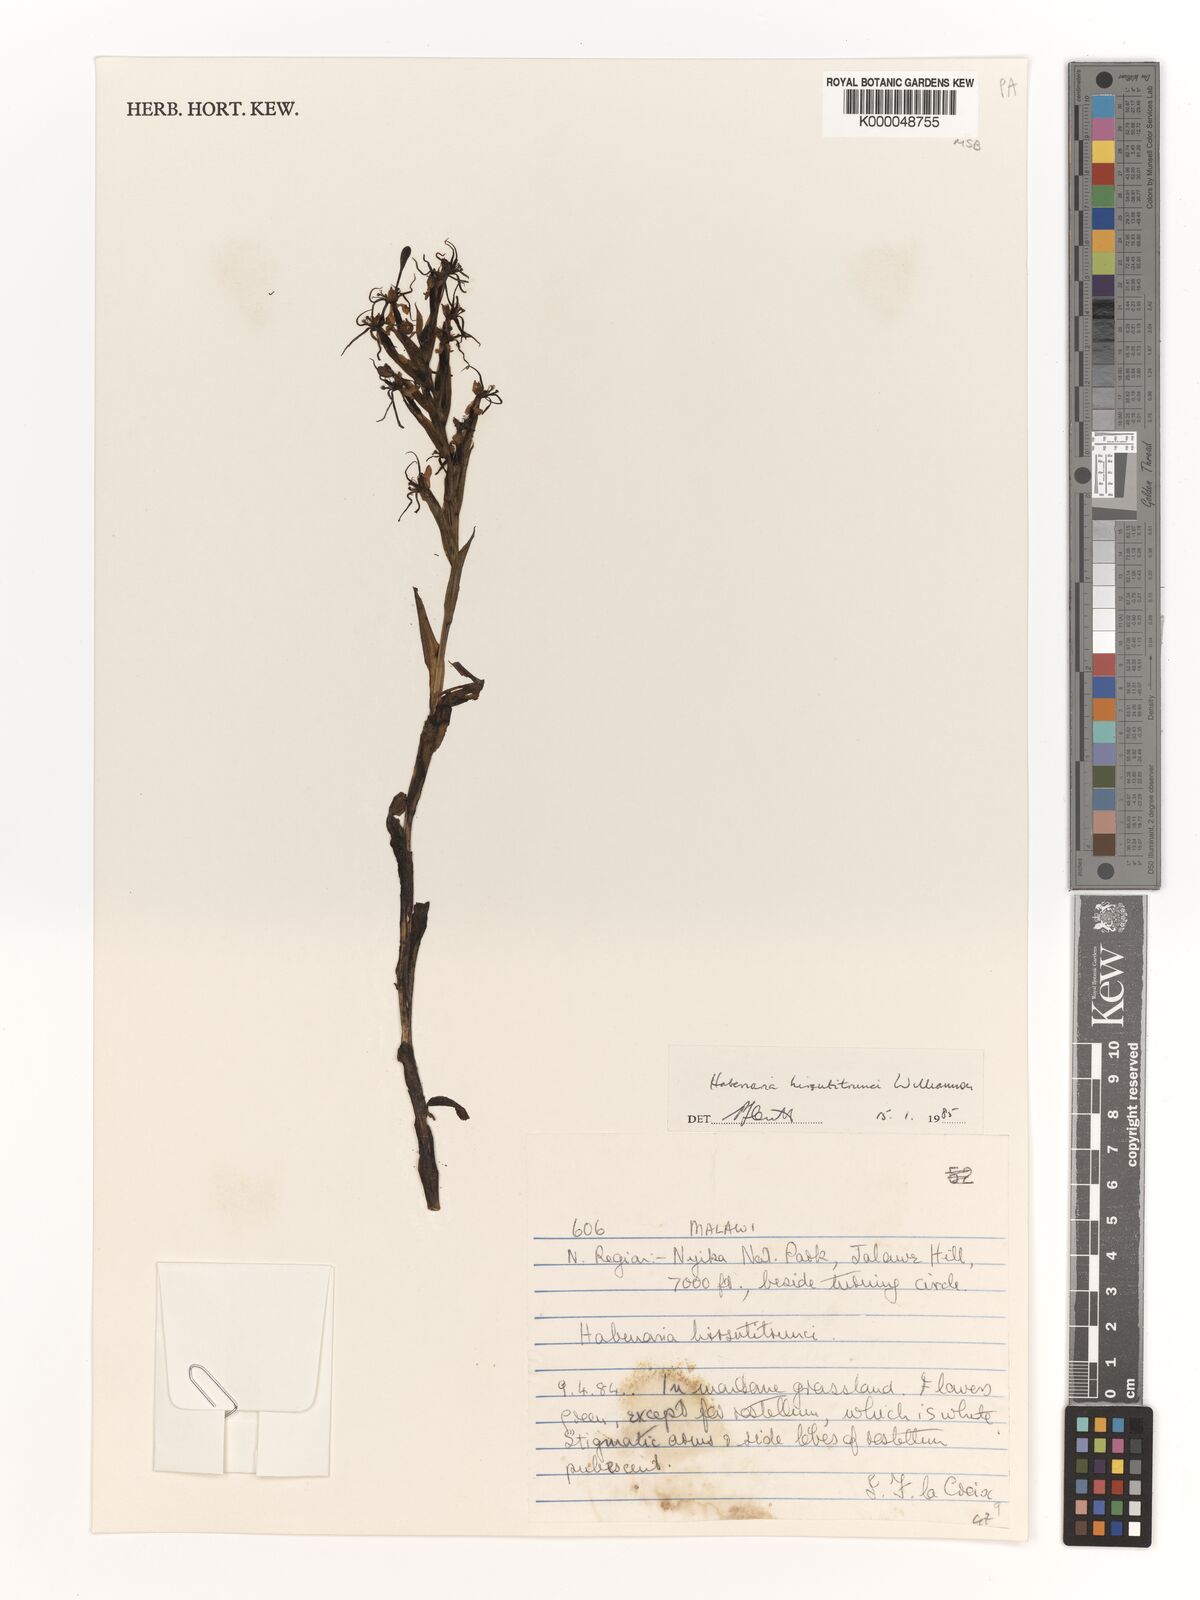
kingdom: Plantae
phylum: Tracheophyta
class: Liliopsida
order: Asparagales
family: Orchidaceae
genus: Habenaria
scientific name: Habenaria
